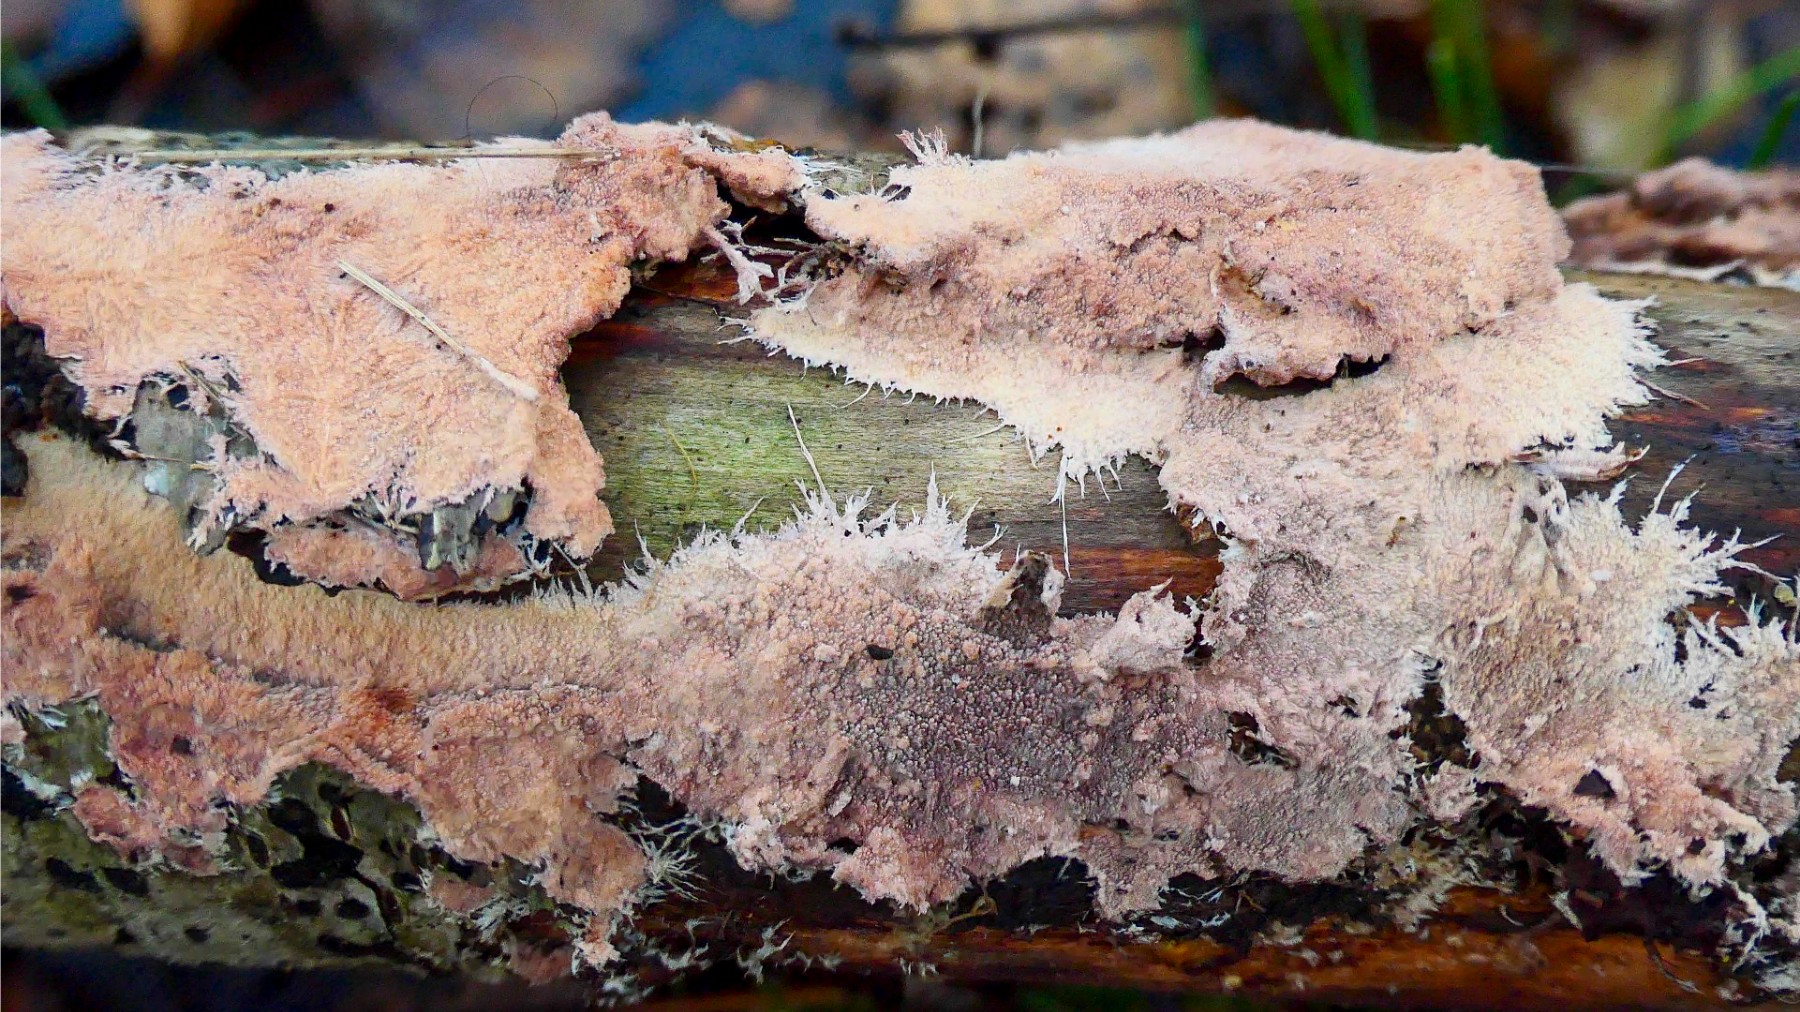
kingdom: Fungi
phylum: Basidiomycota
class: Agaricomycetes
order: Polyporales
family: Steccherinaceae
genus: Steccherinum
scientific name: Steccherinum fimbriatum
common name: trådet skønpig
